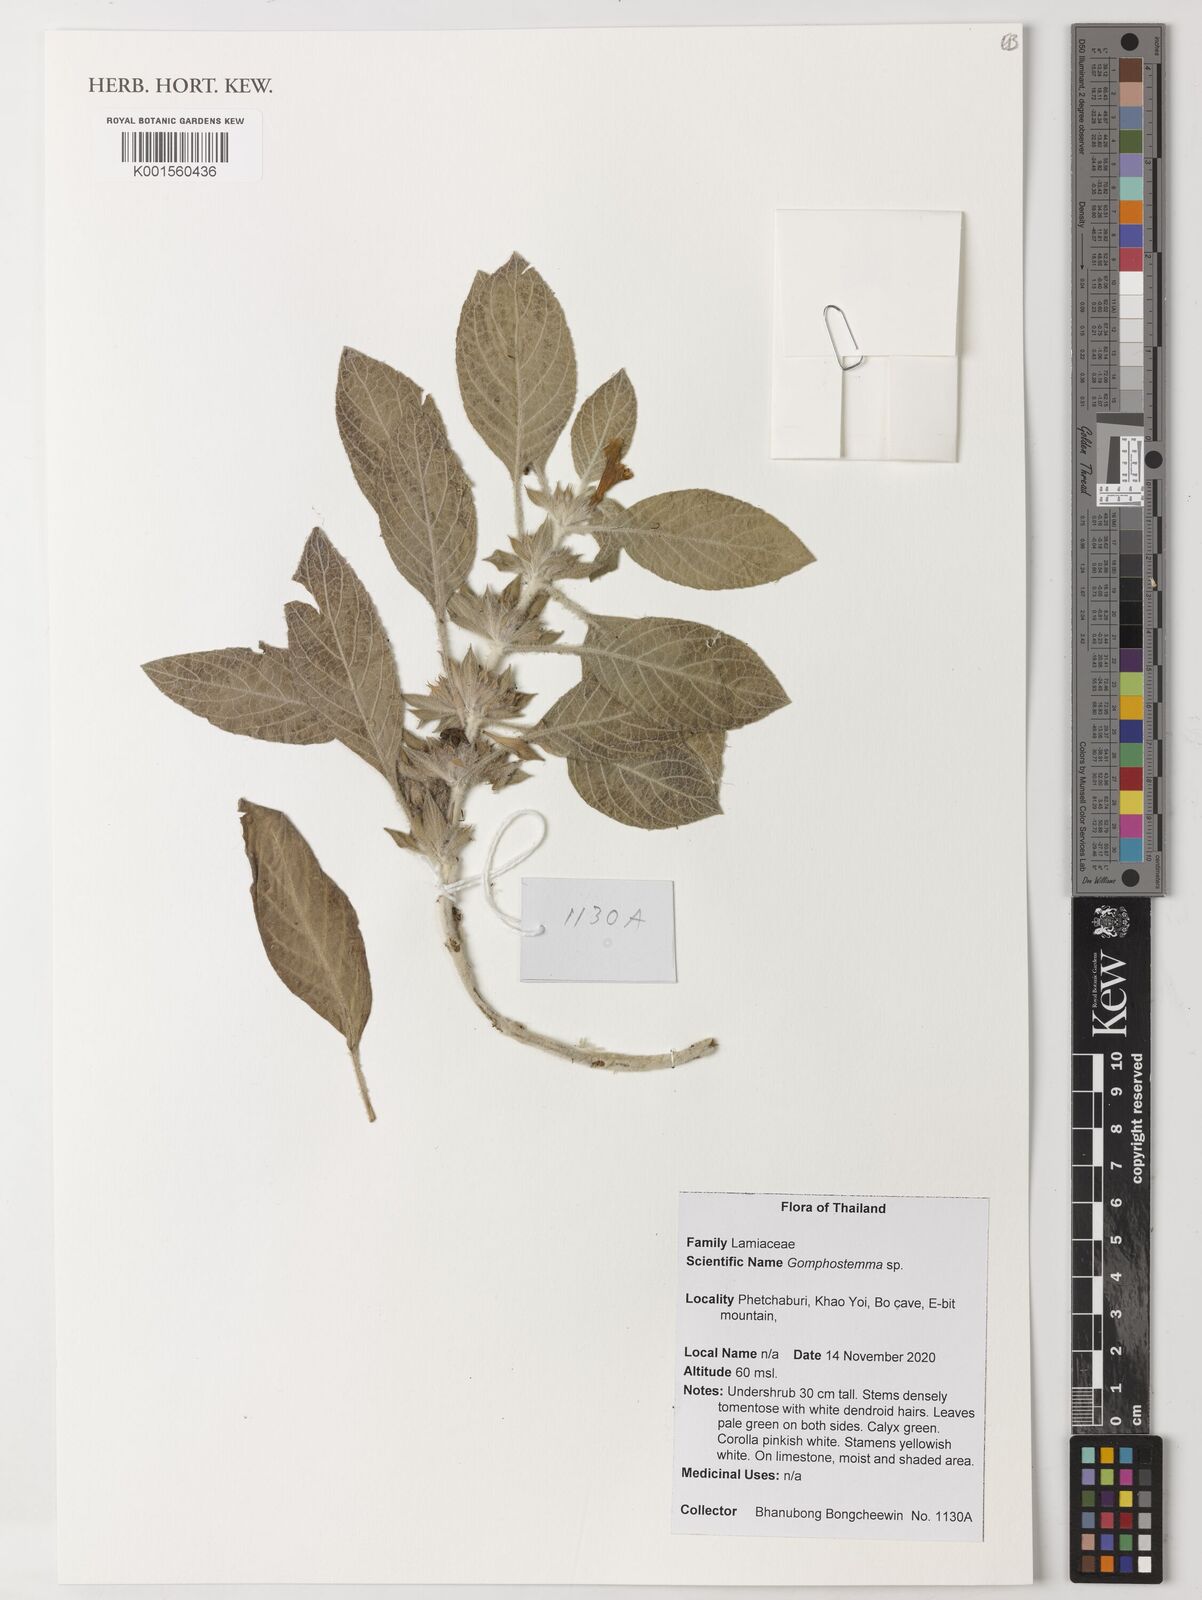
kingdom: Plantae
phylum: Tracheophyta
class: Magnoliopsida
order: Lamiales
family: Lamiaceae
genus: Gomphostemma
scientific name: Gomphostemma
